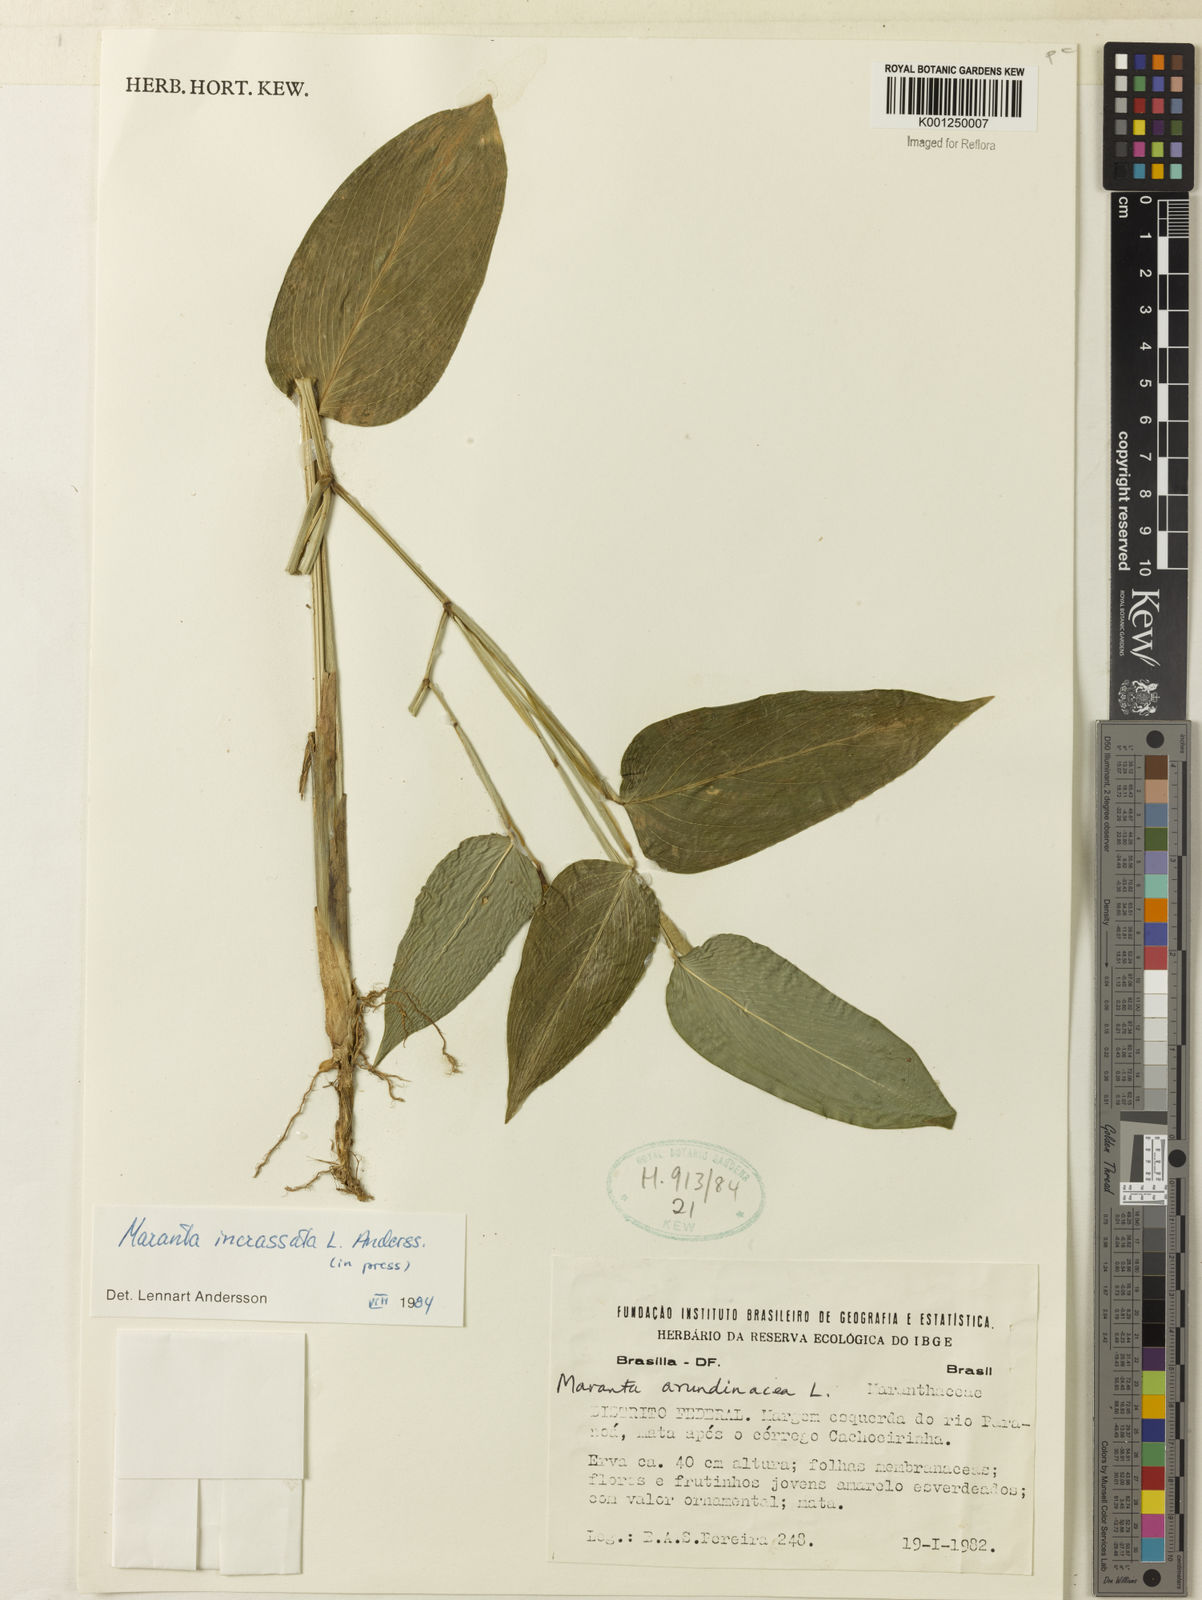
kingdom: Plantae
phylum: Tracheophyta
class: Liliopsida
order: Zingiberales
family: Marantaceae
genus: Maranta
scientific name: Maranta incrassata
